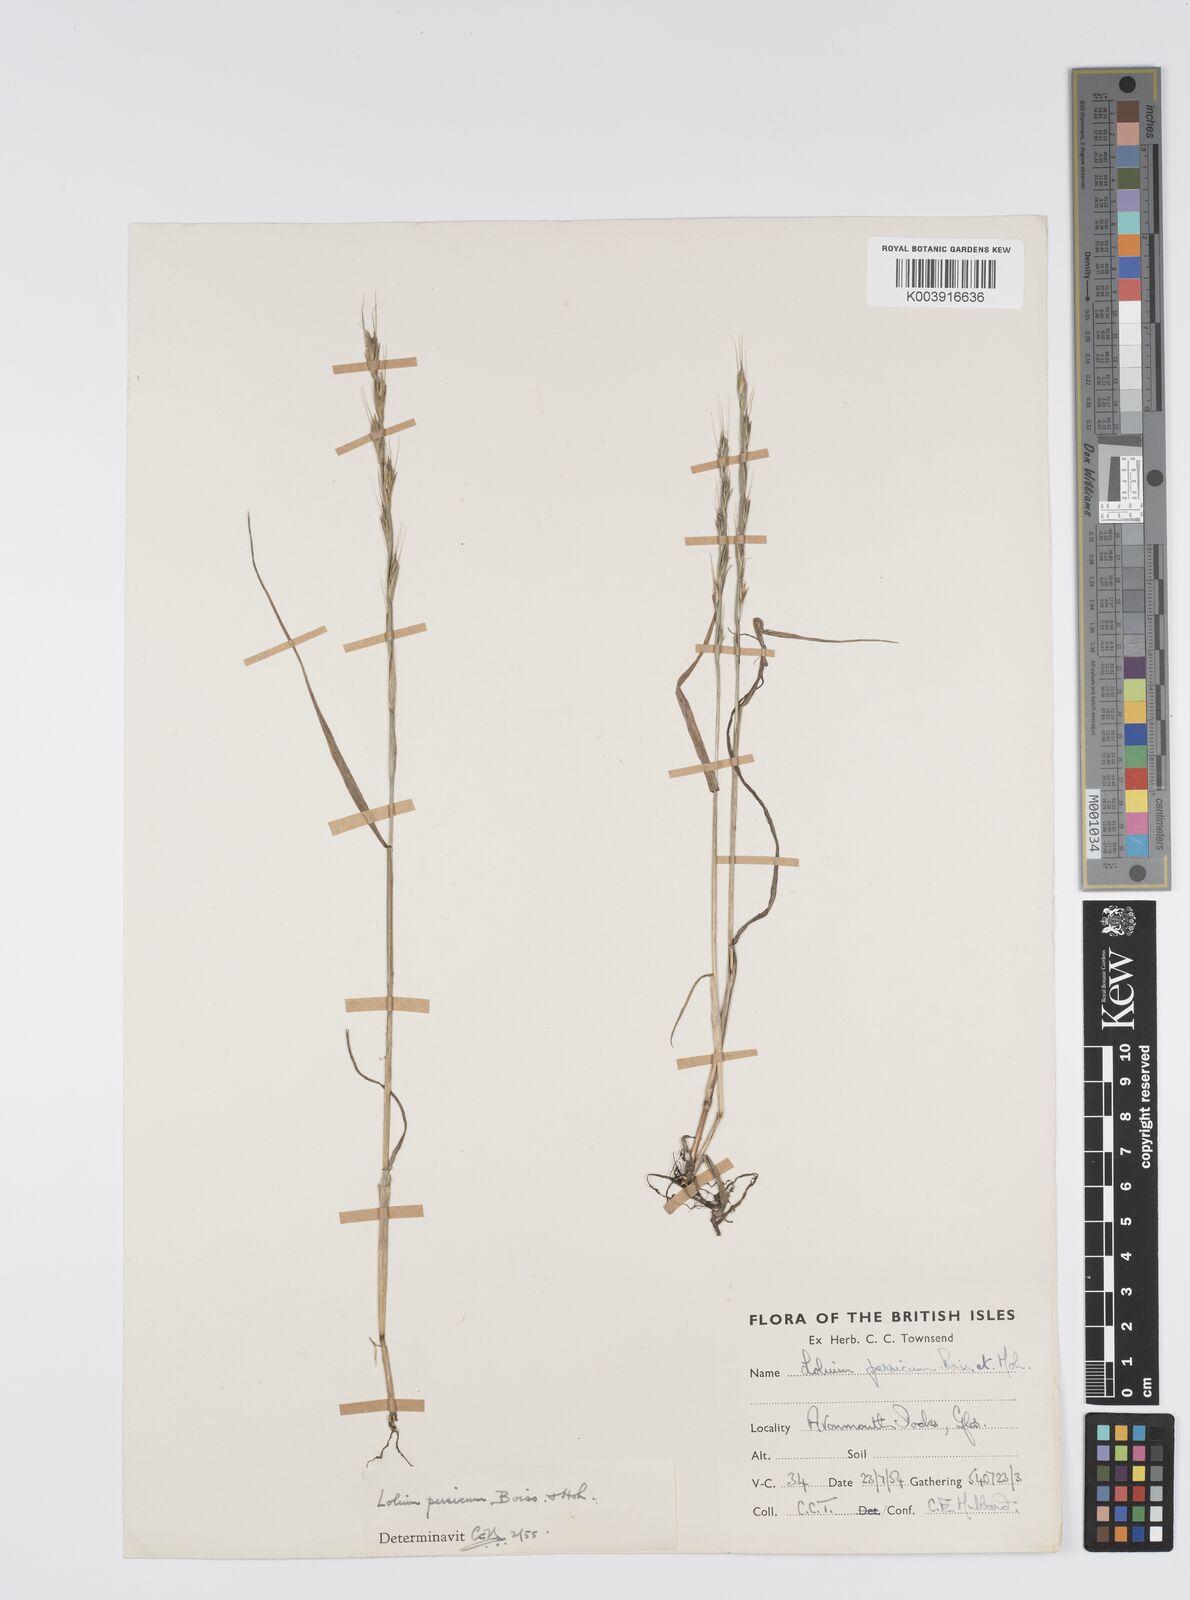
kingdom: Plantae
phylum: Tracheophyta
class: Liliopsida
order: Poales
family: Poaceae
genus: Lolium
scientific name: Lolium persicum
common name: Persian ryegrass
